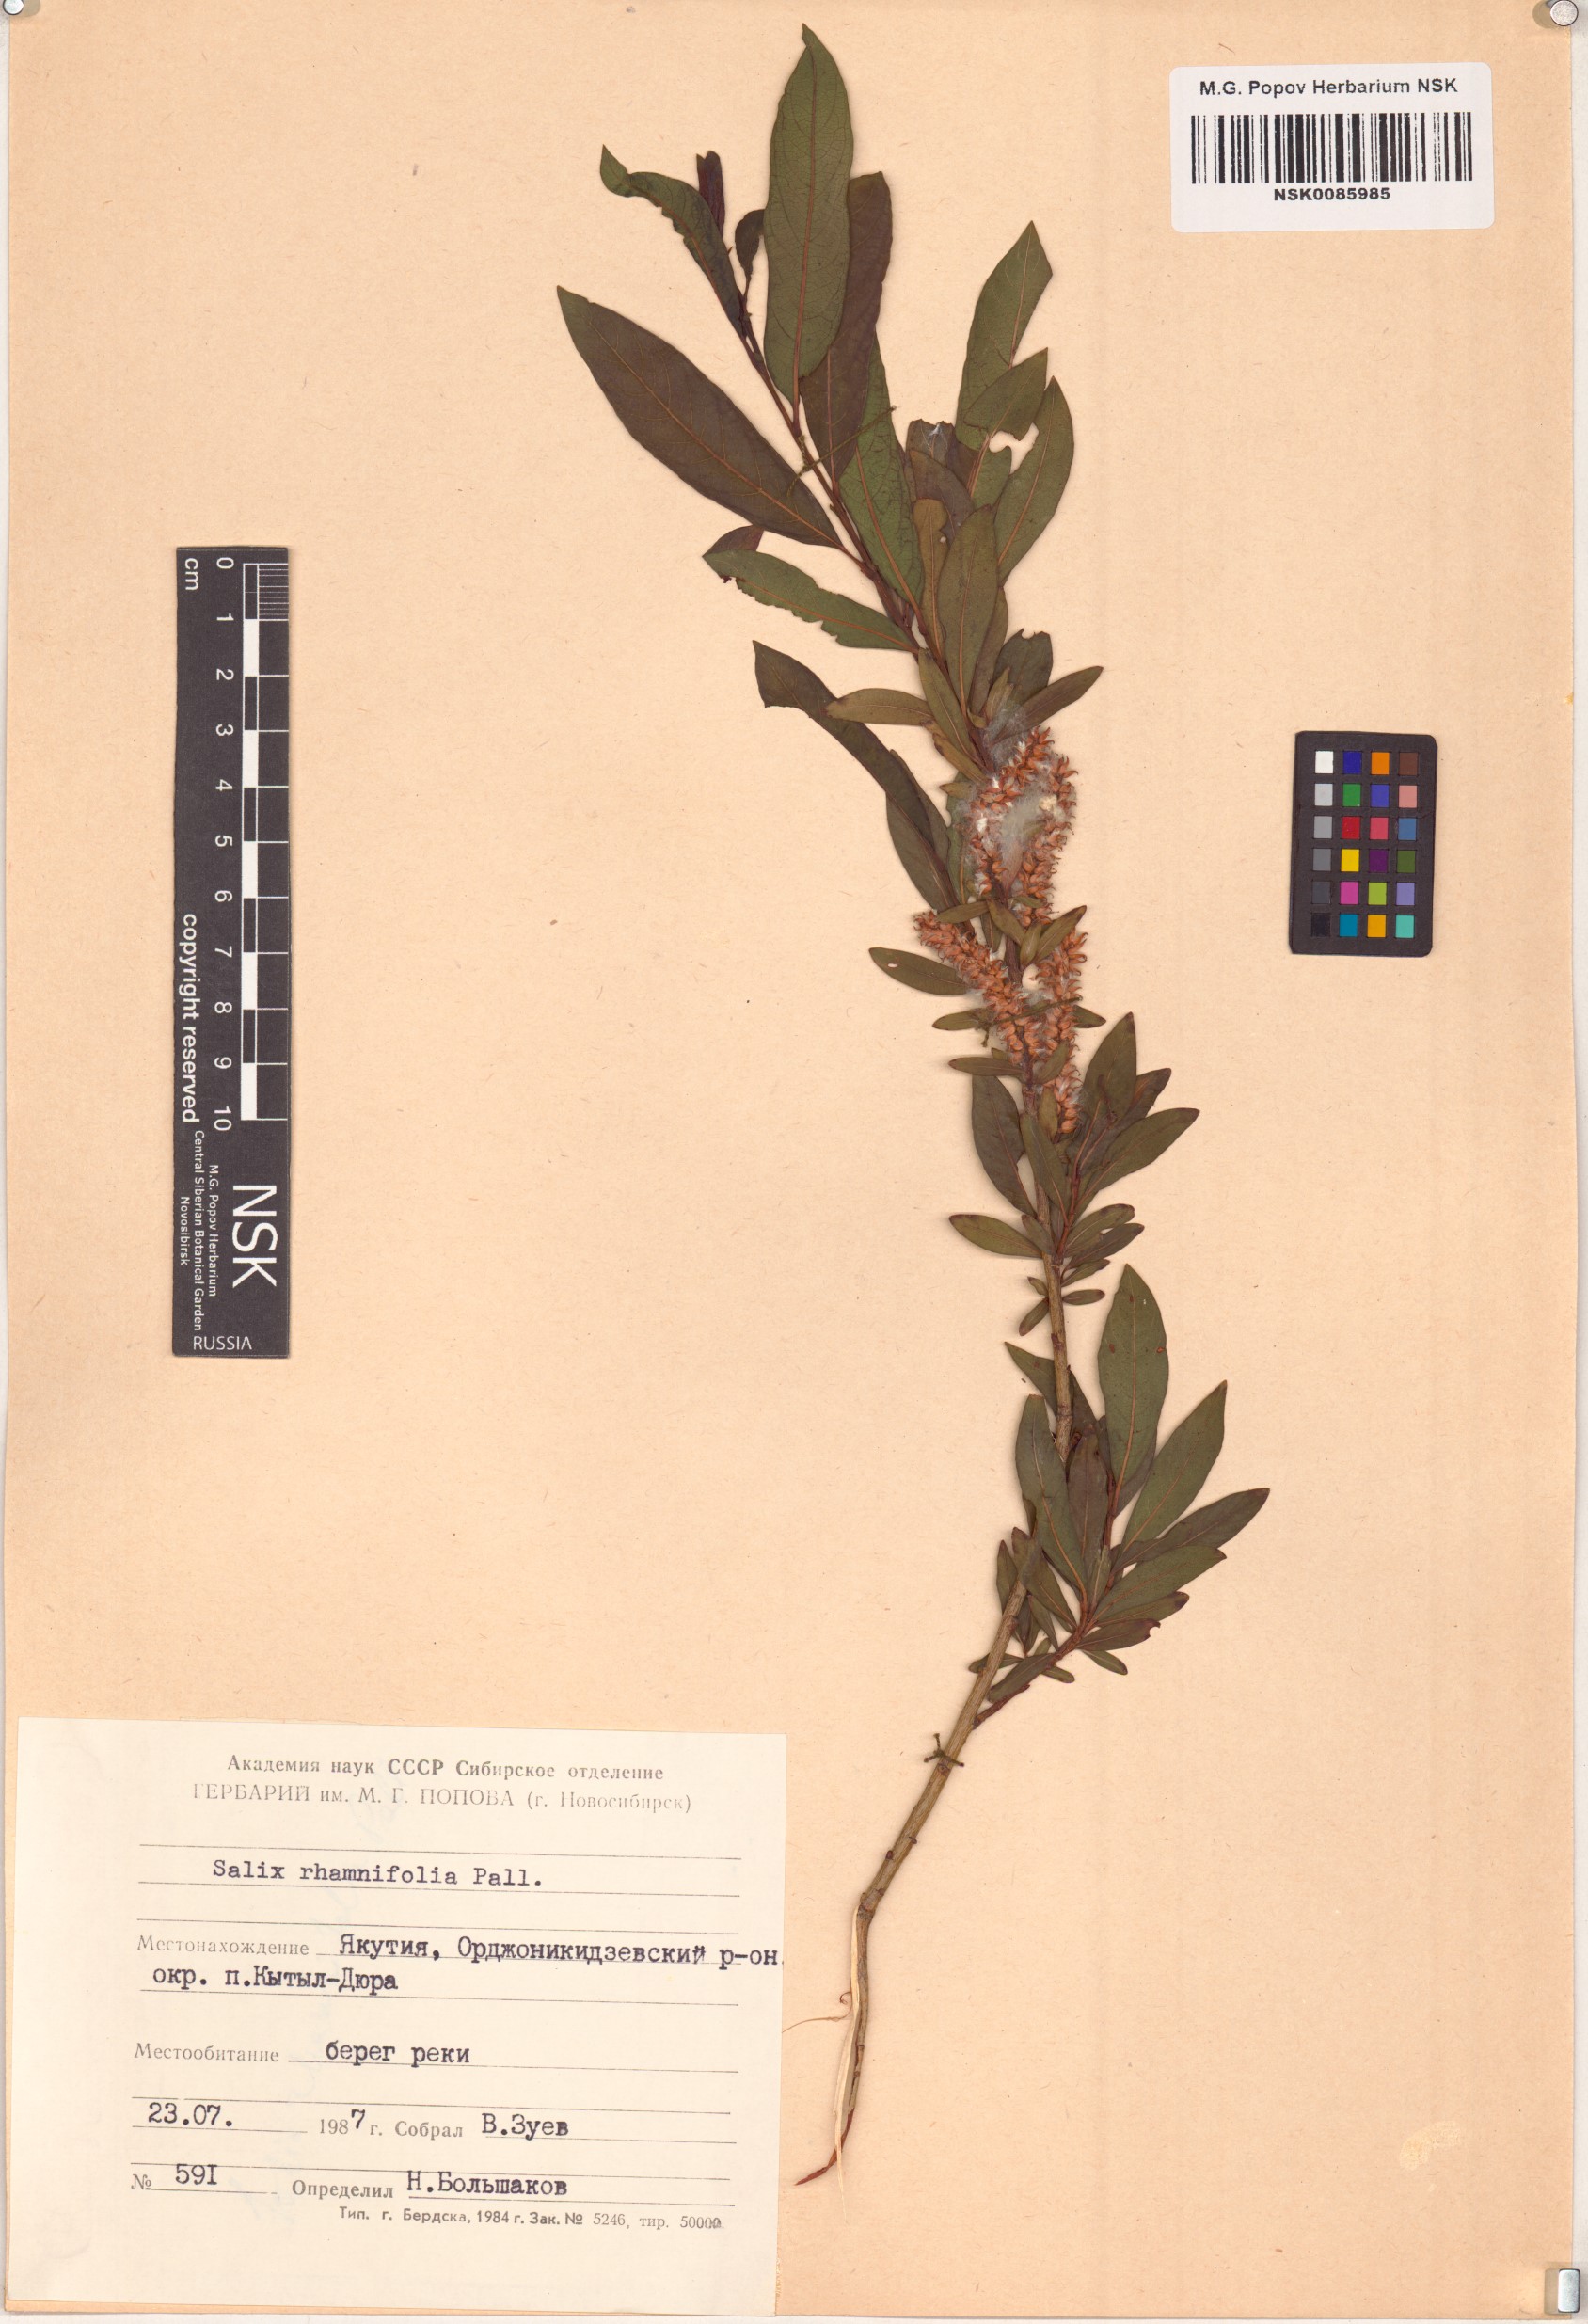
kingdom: Plantae
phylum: Tracheophyta
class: Magnoliopsida
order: Malpighiales
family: Salicaceae
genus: Salix
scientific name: Salix rhamnifolia
